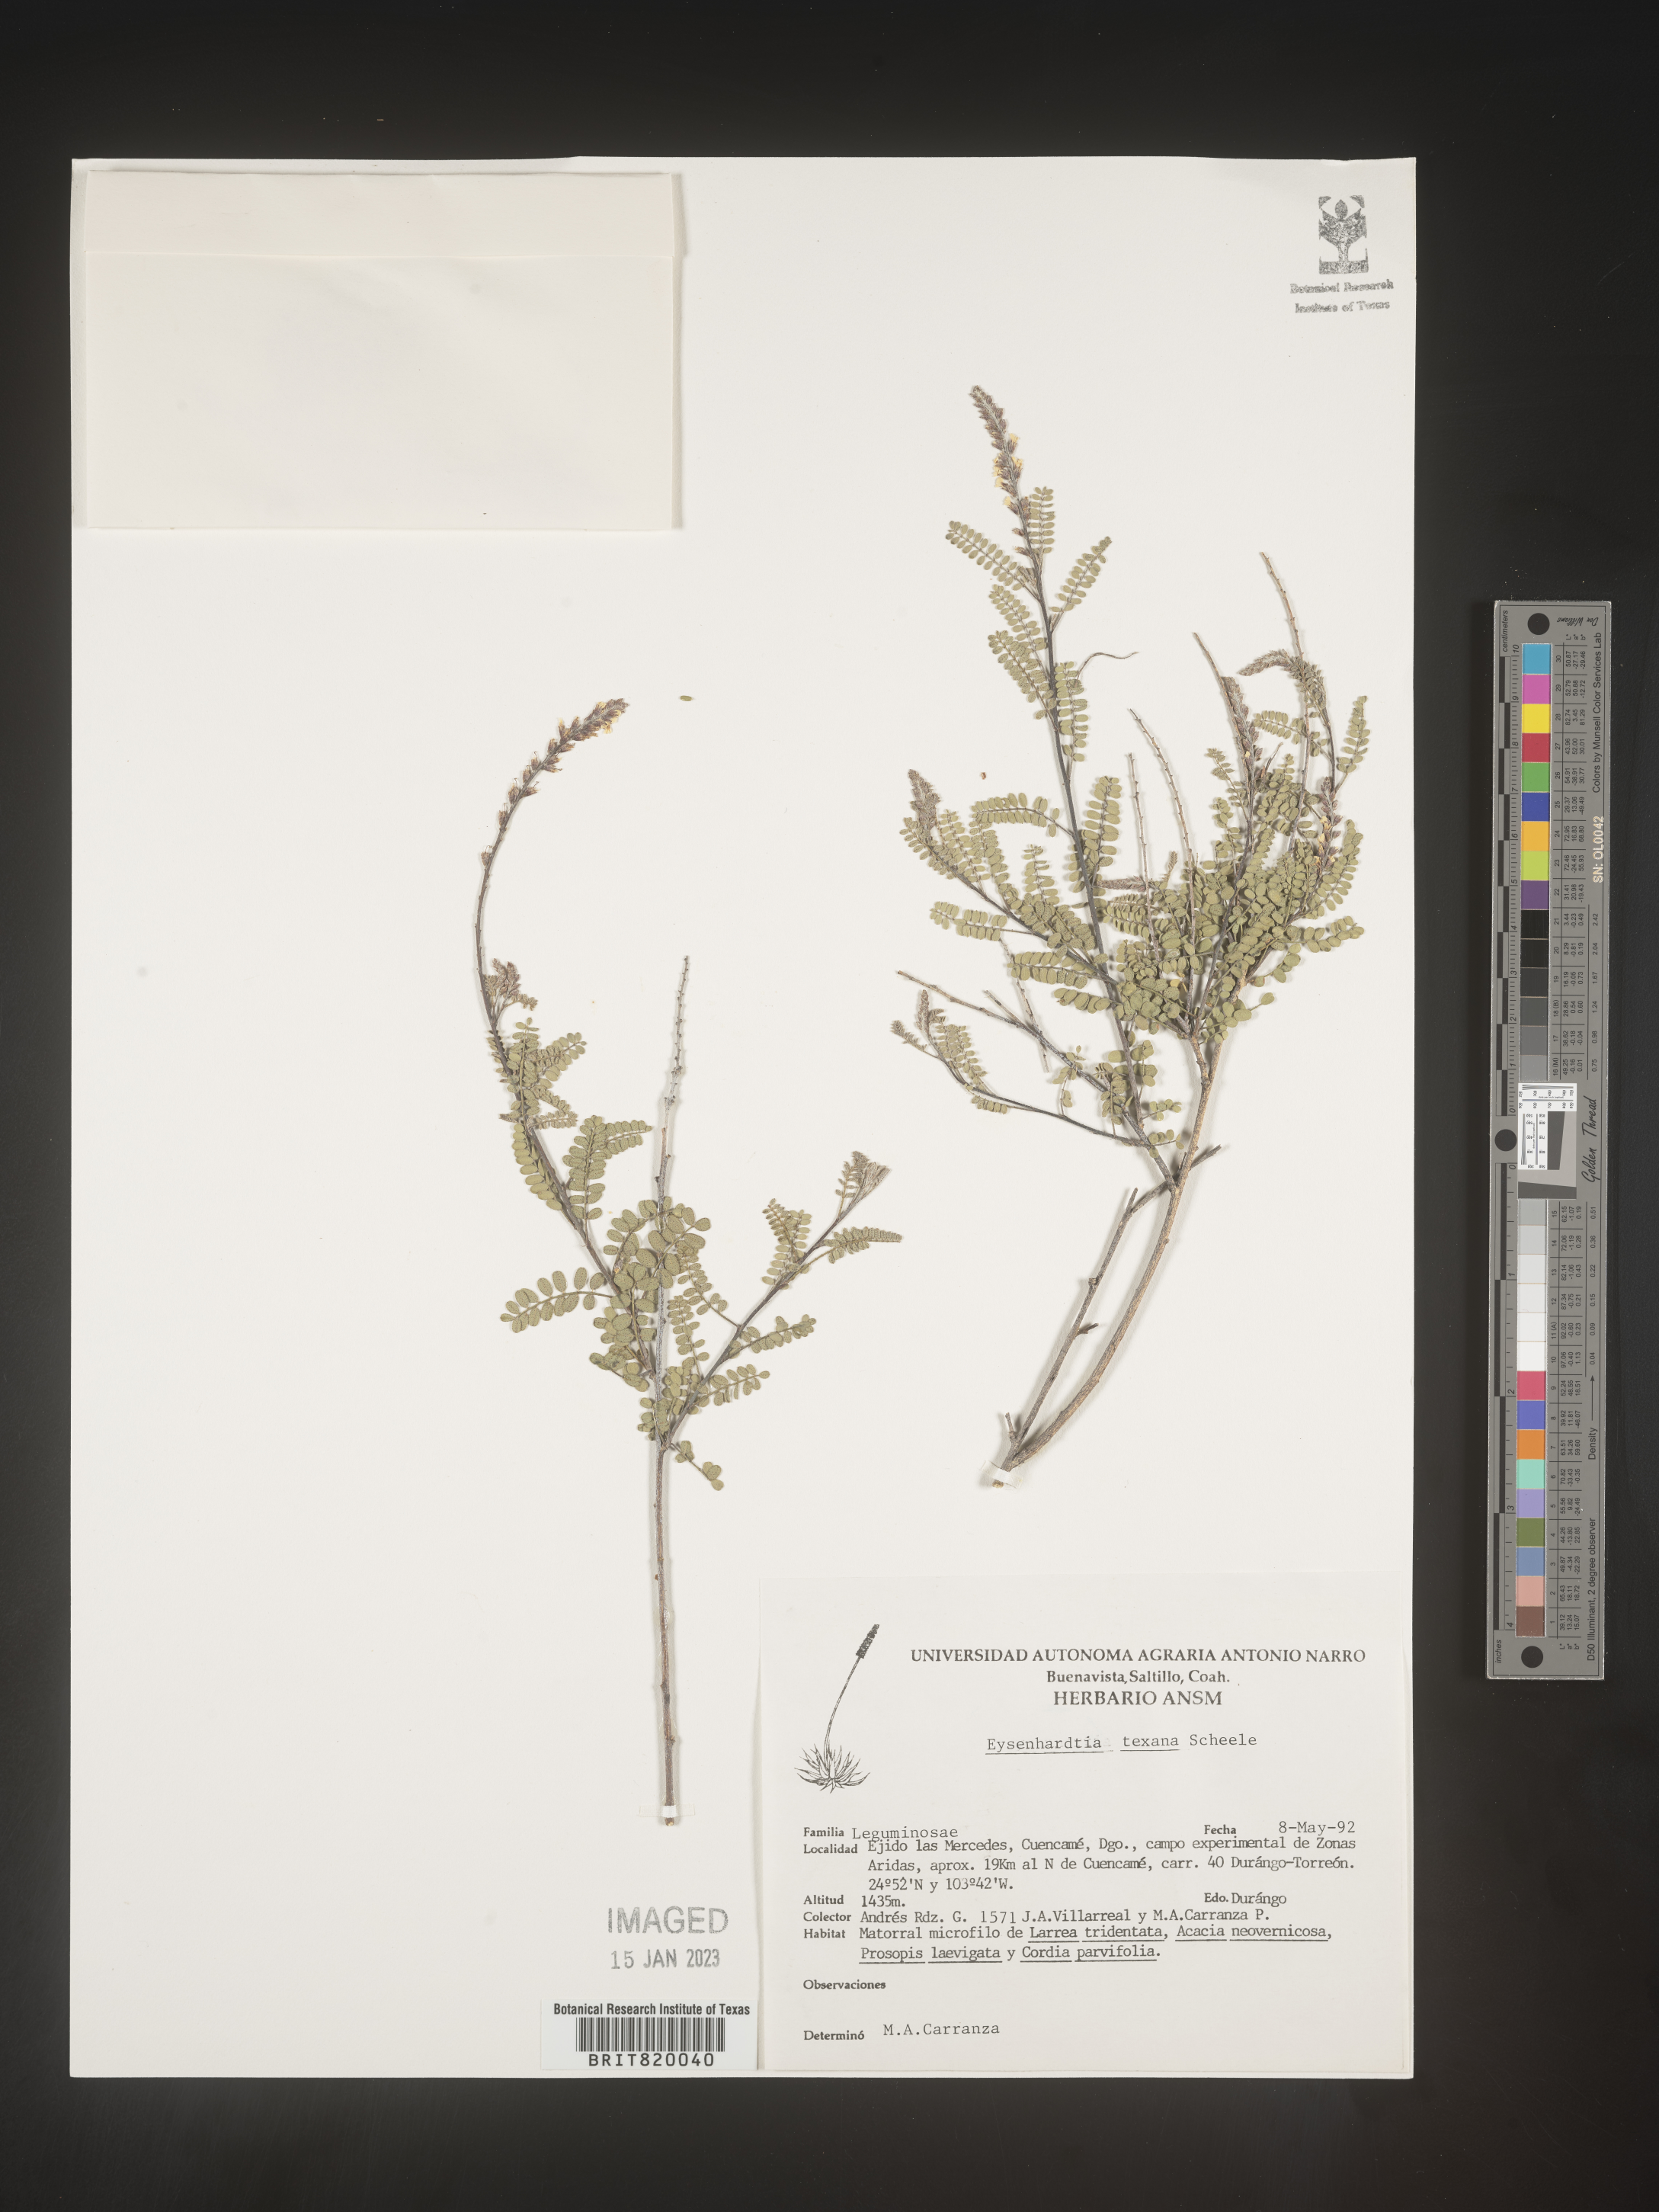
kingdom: Plantae
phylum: Tracheophyta
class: Magnoliopsida
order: Fabales
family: Fabaceae
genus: Eysenhardtia
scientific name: Eysenhardtia
